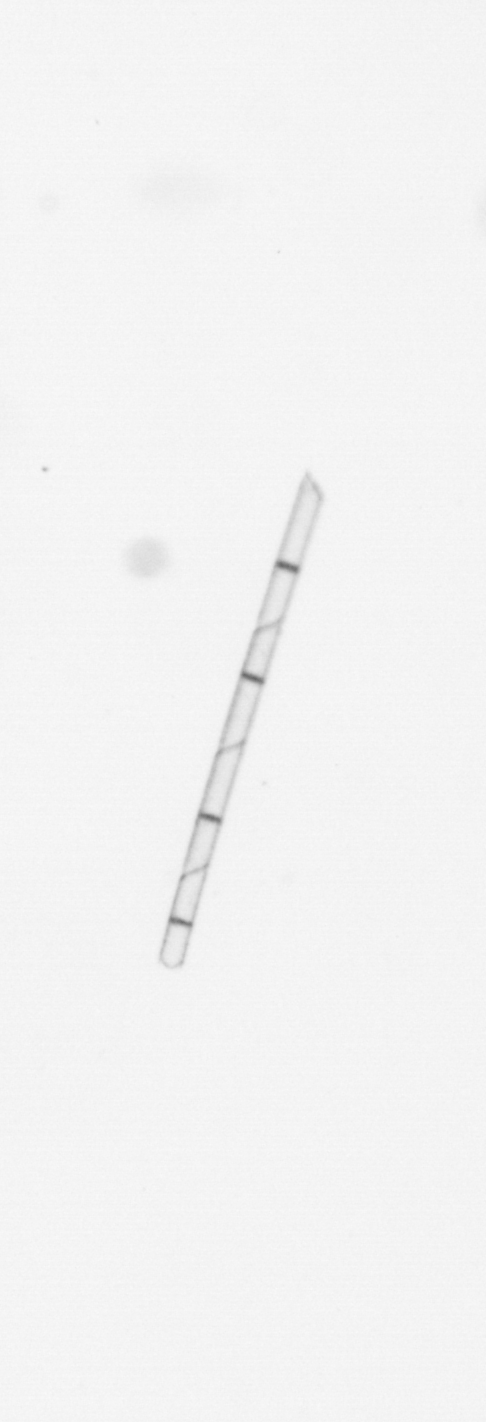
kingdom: Chromista
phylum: Ochrophyta
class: Bacillariophyceae
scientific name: Bacillariophyceae
